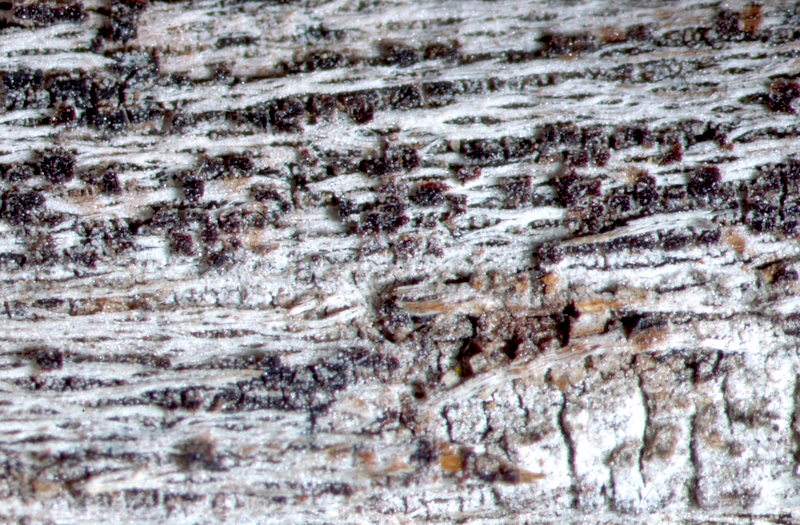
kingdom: Fungi
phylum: Ascomycota
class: Lecanoromycetes
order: Teloschistales
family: Teloschistaceae
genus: Athallia
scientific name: Athallia alnetorum
